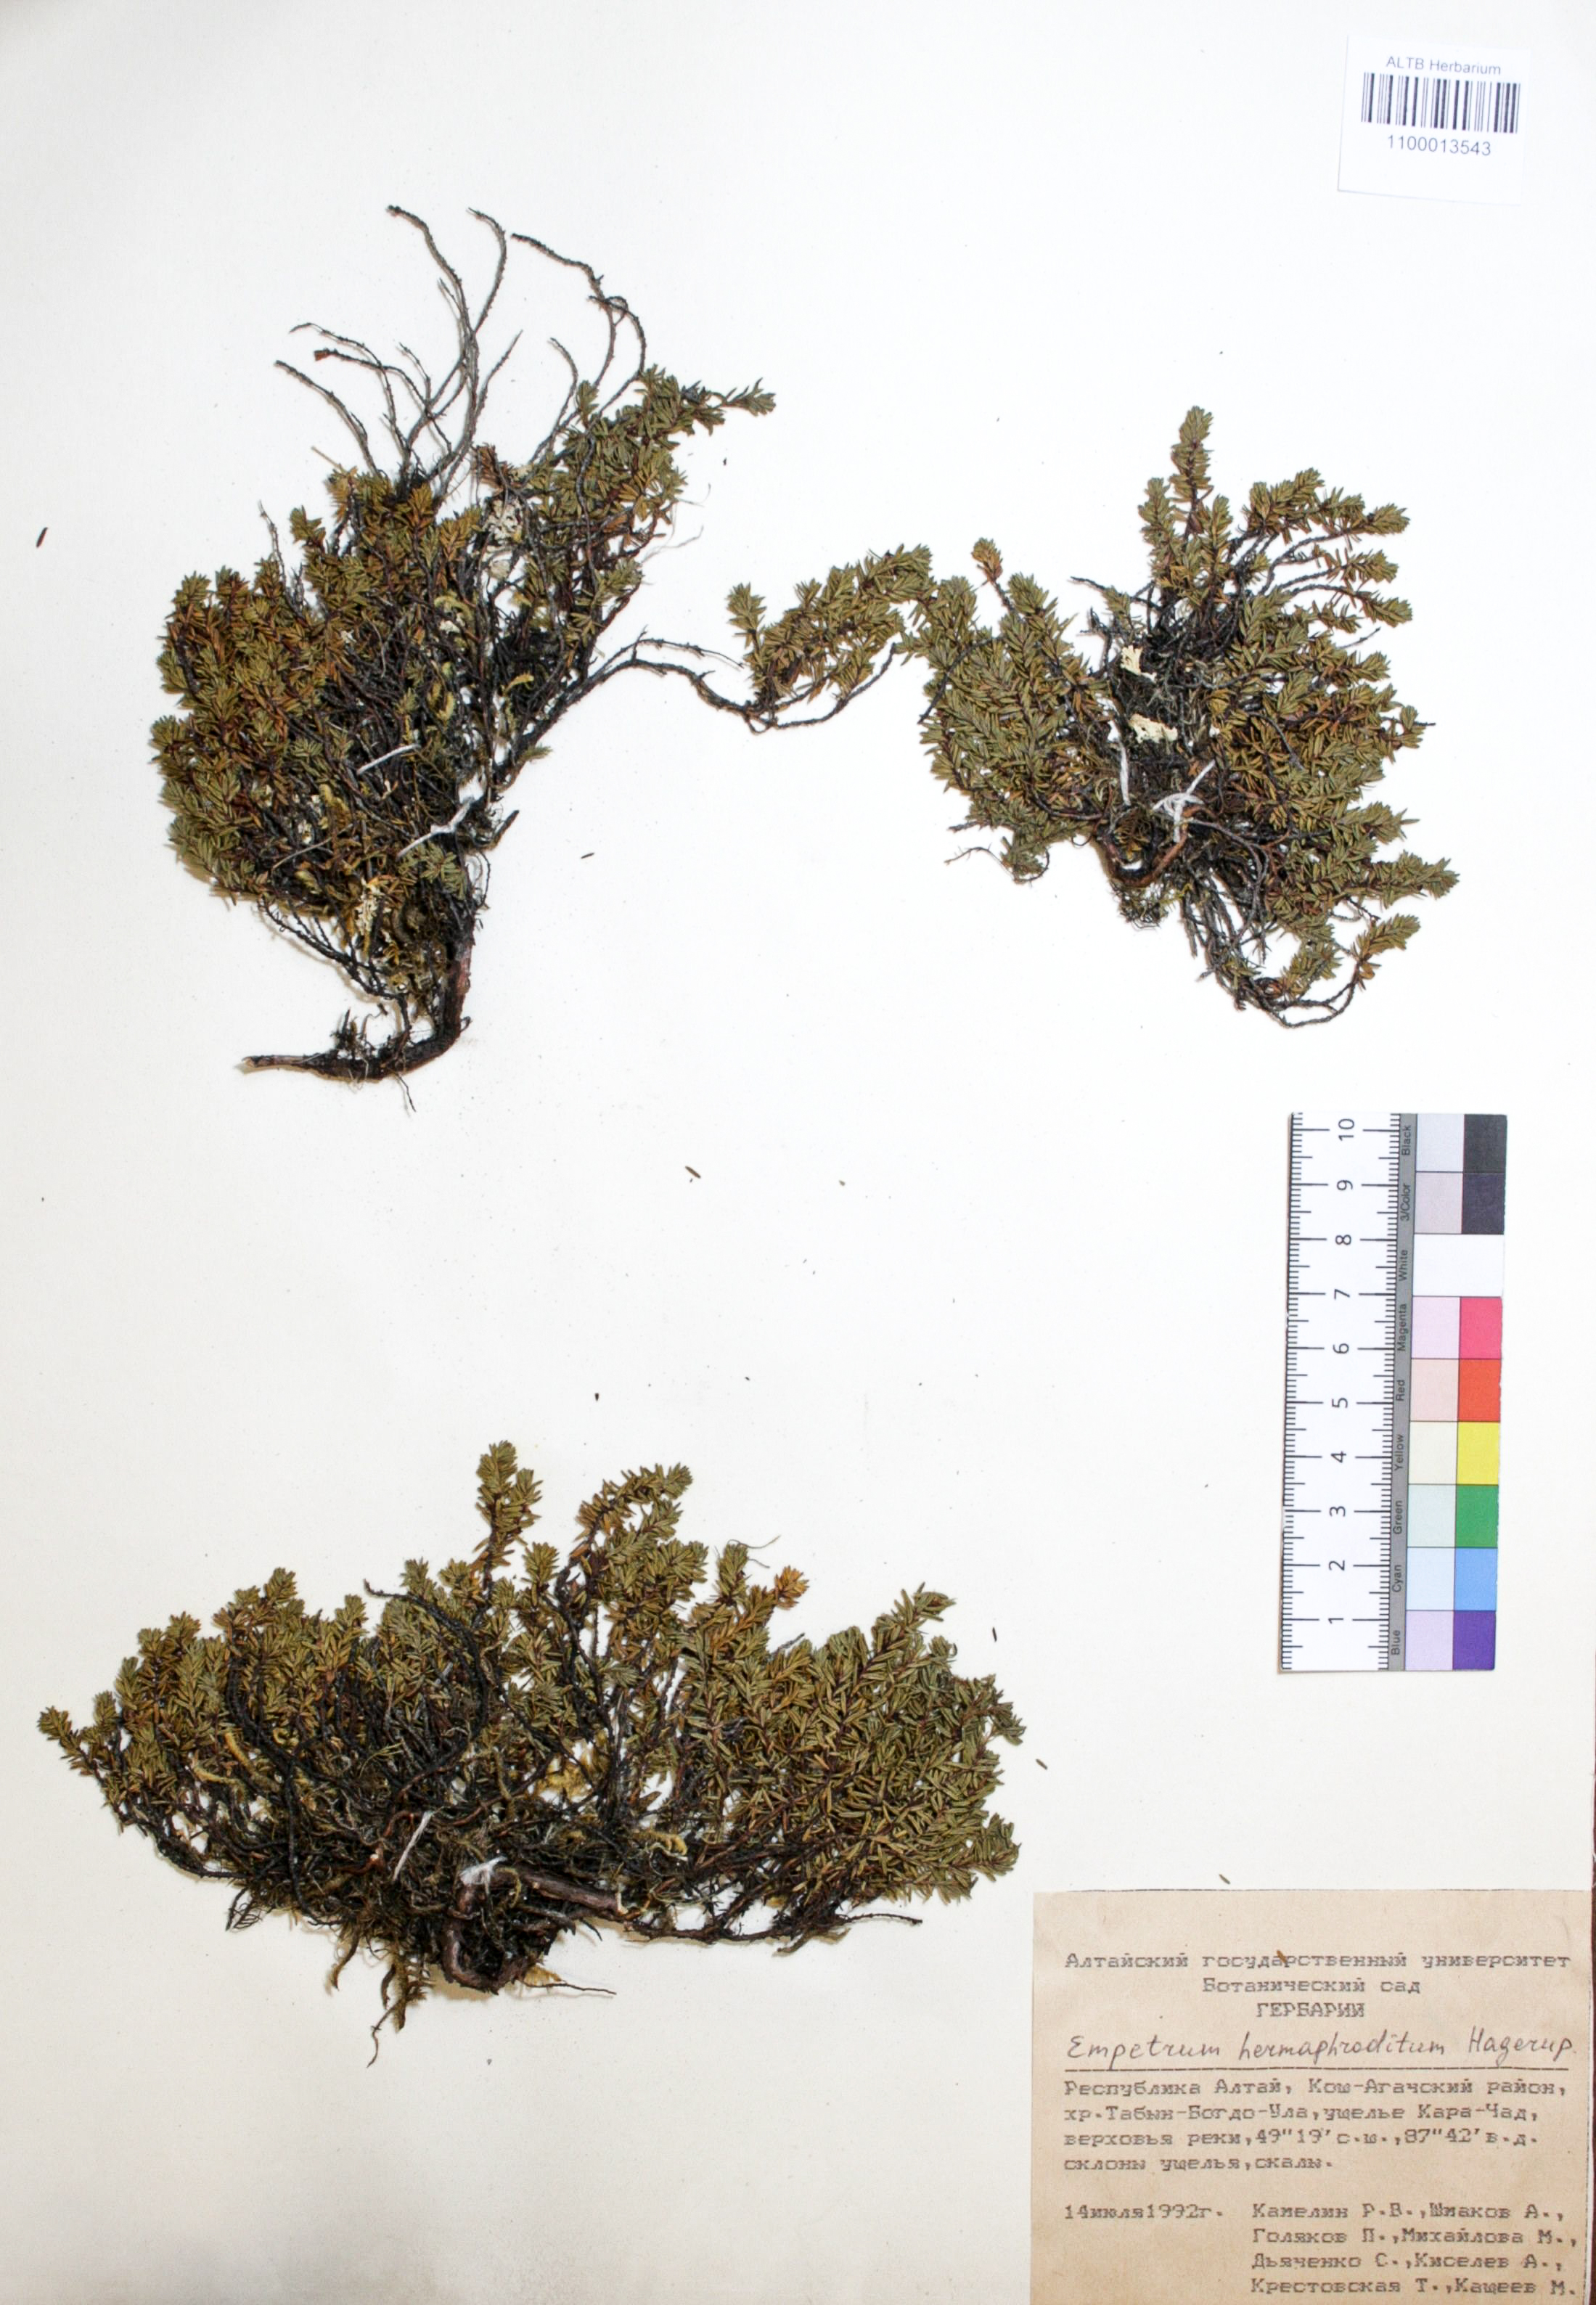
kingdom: Plantae
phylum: Tracheophyta
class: Magnoliopsida
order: Ericales
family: Ericaceae
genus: Empetrum
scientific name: Empetrum hermaphroditum
